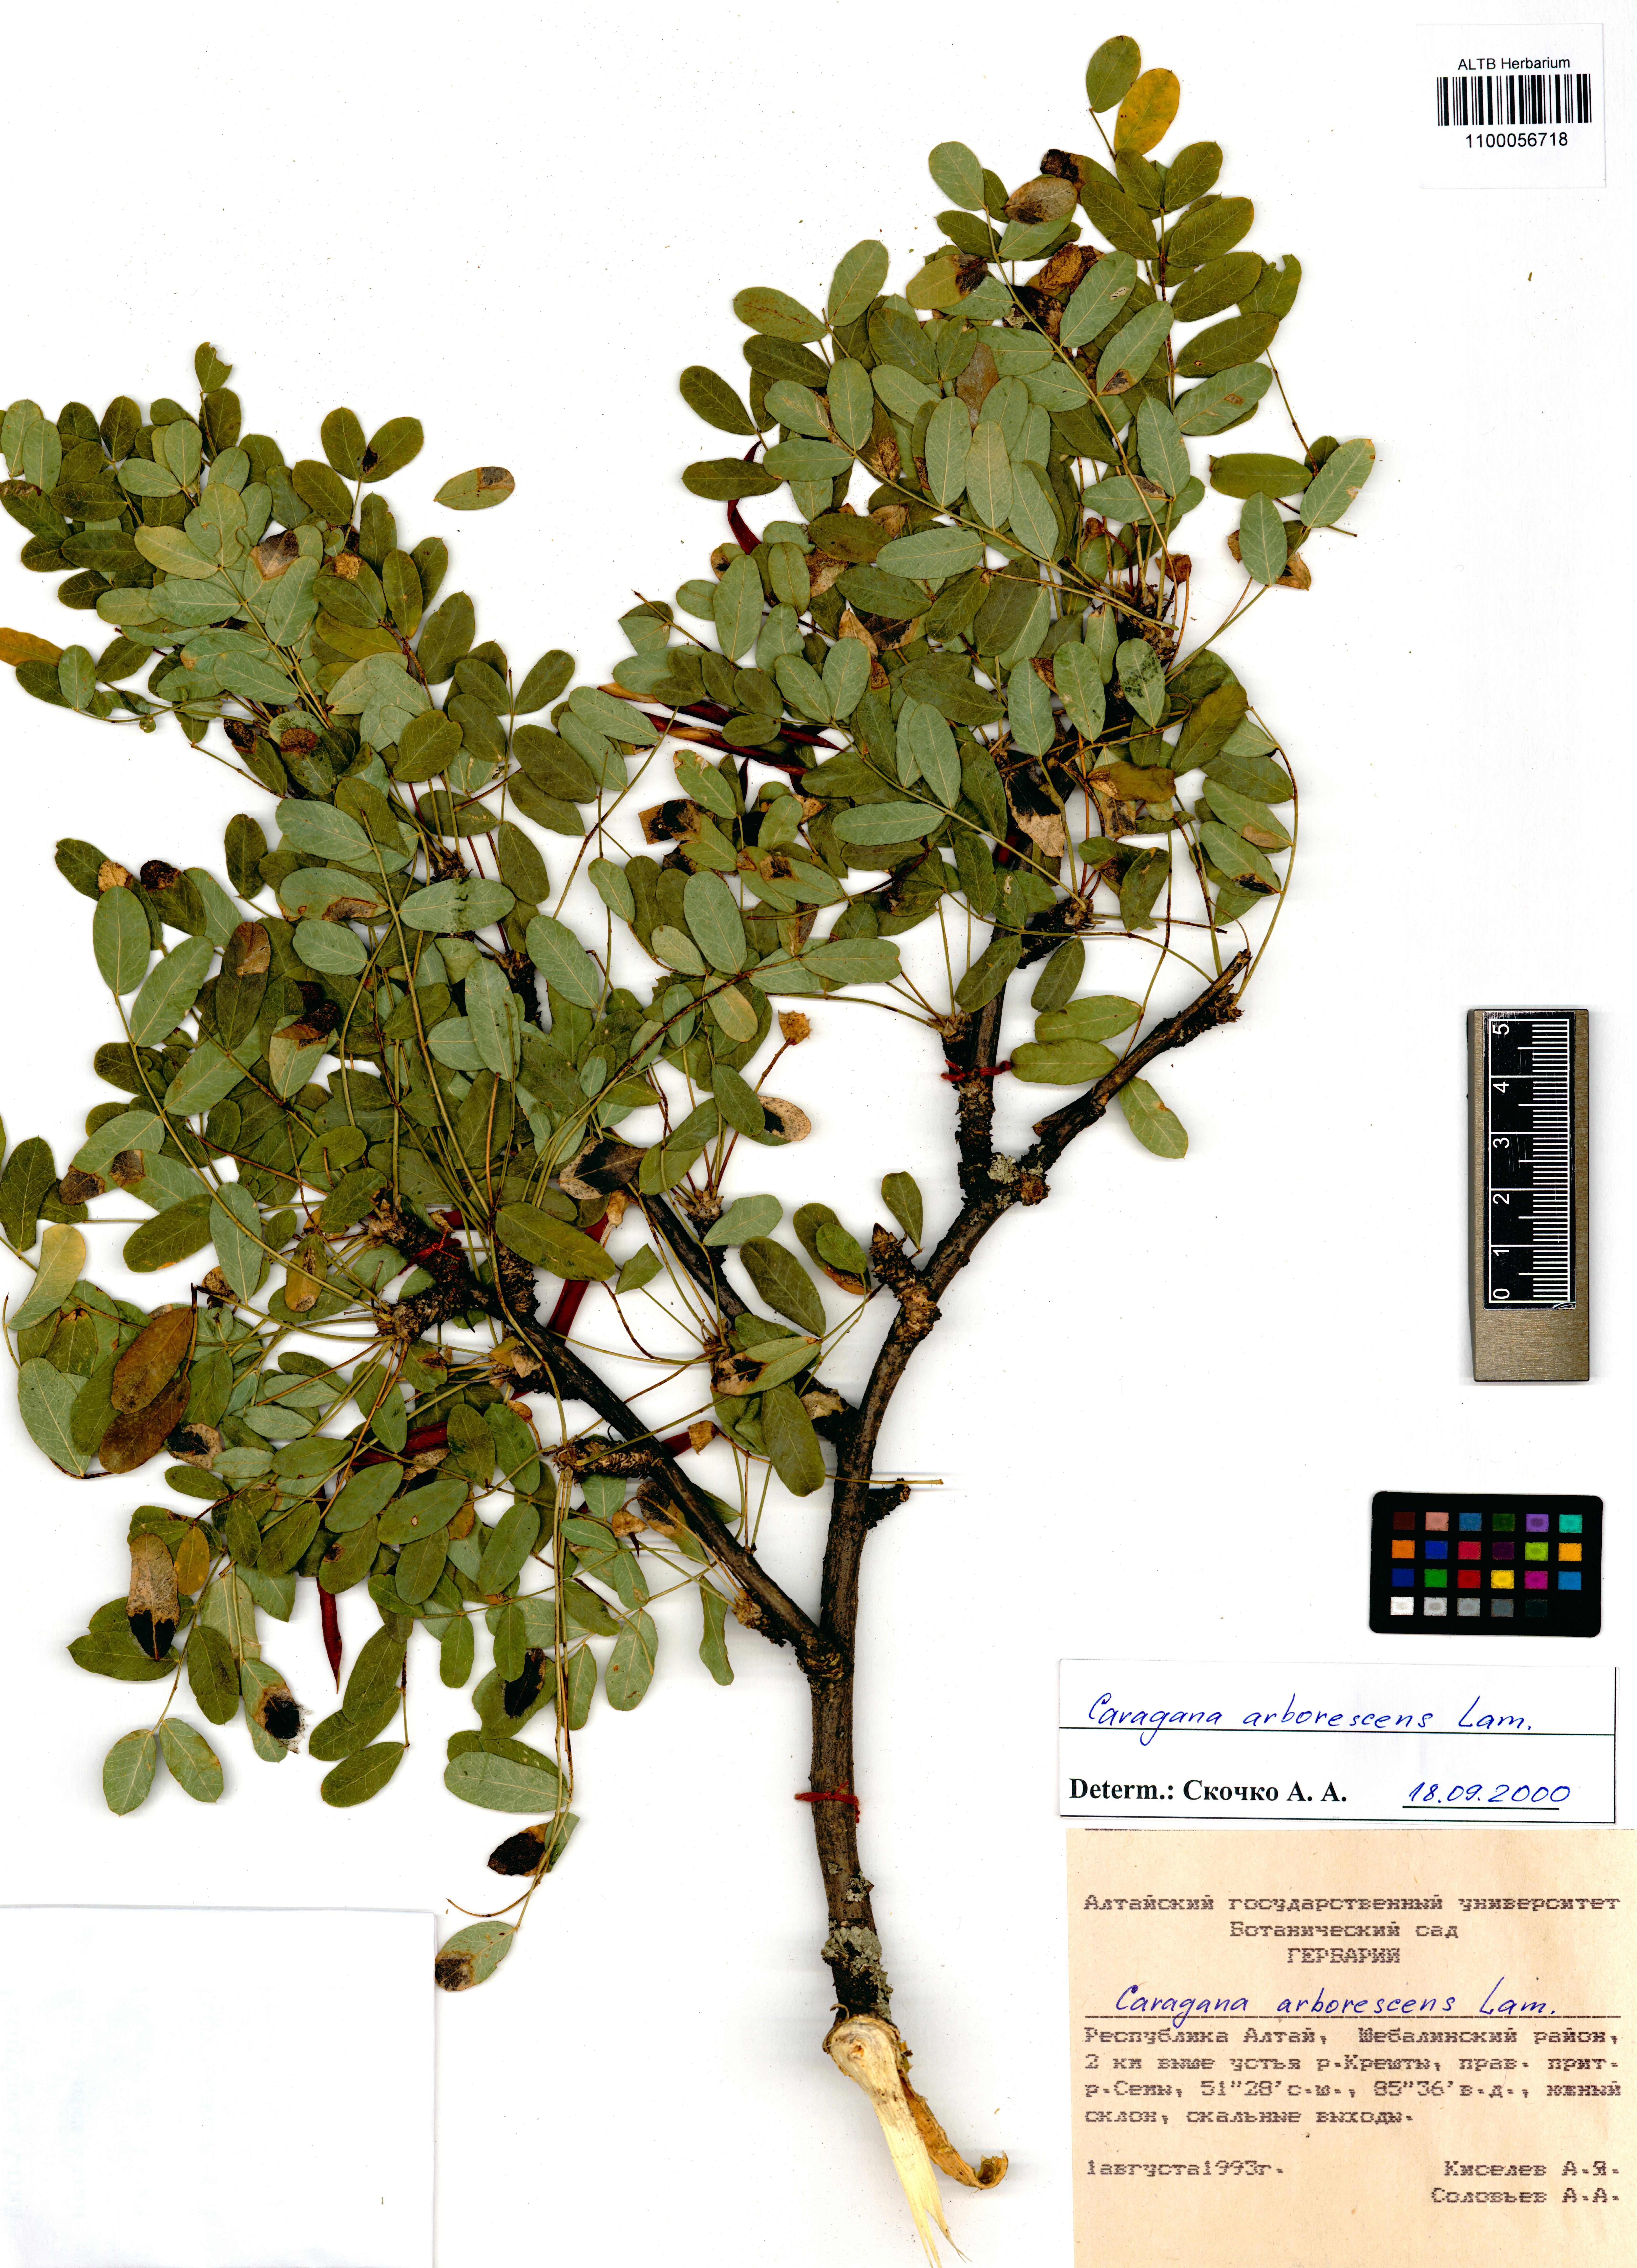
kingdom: Plantae
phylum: Tracheophyta
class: Magnoliopsida
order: Fabales
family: Fabaceae
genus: Caragana
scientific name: Caragana arborescens
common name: Siberian peashrub
